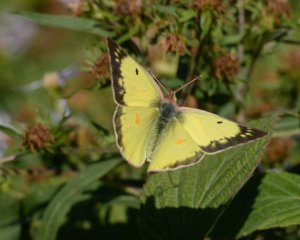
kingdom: Animalia
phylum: Arthropoda
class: Insecta
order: Lepidoptera
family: Pieridae
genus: Colias
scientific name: Colias eurytheme
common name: Orange Sulphur
